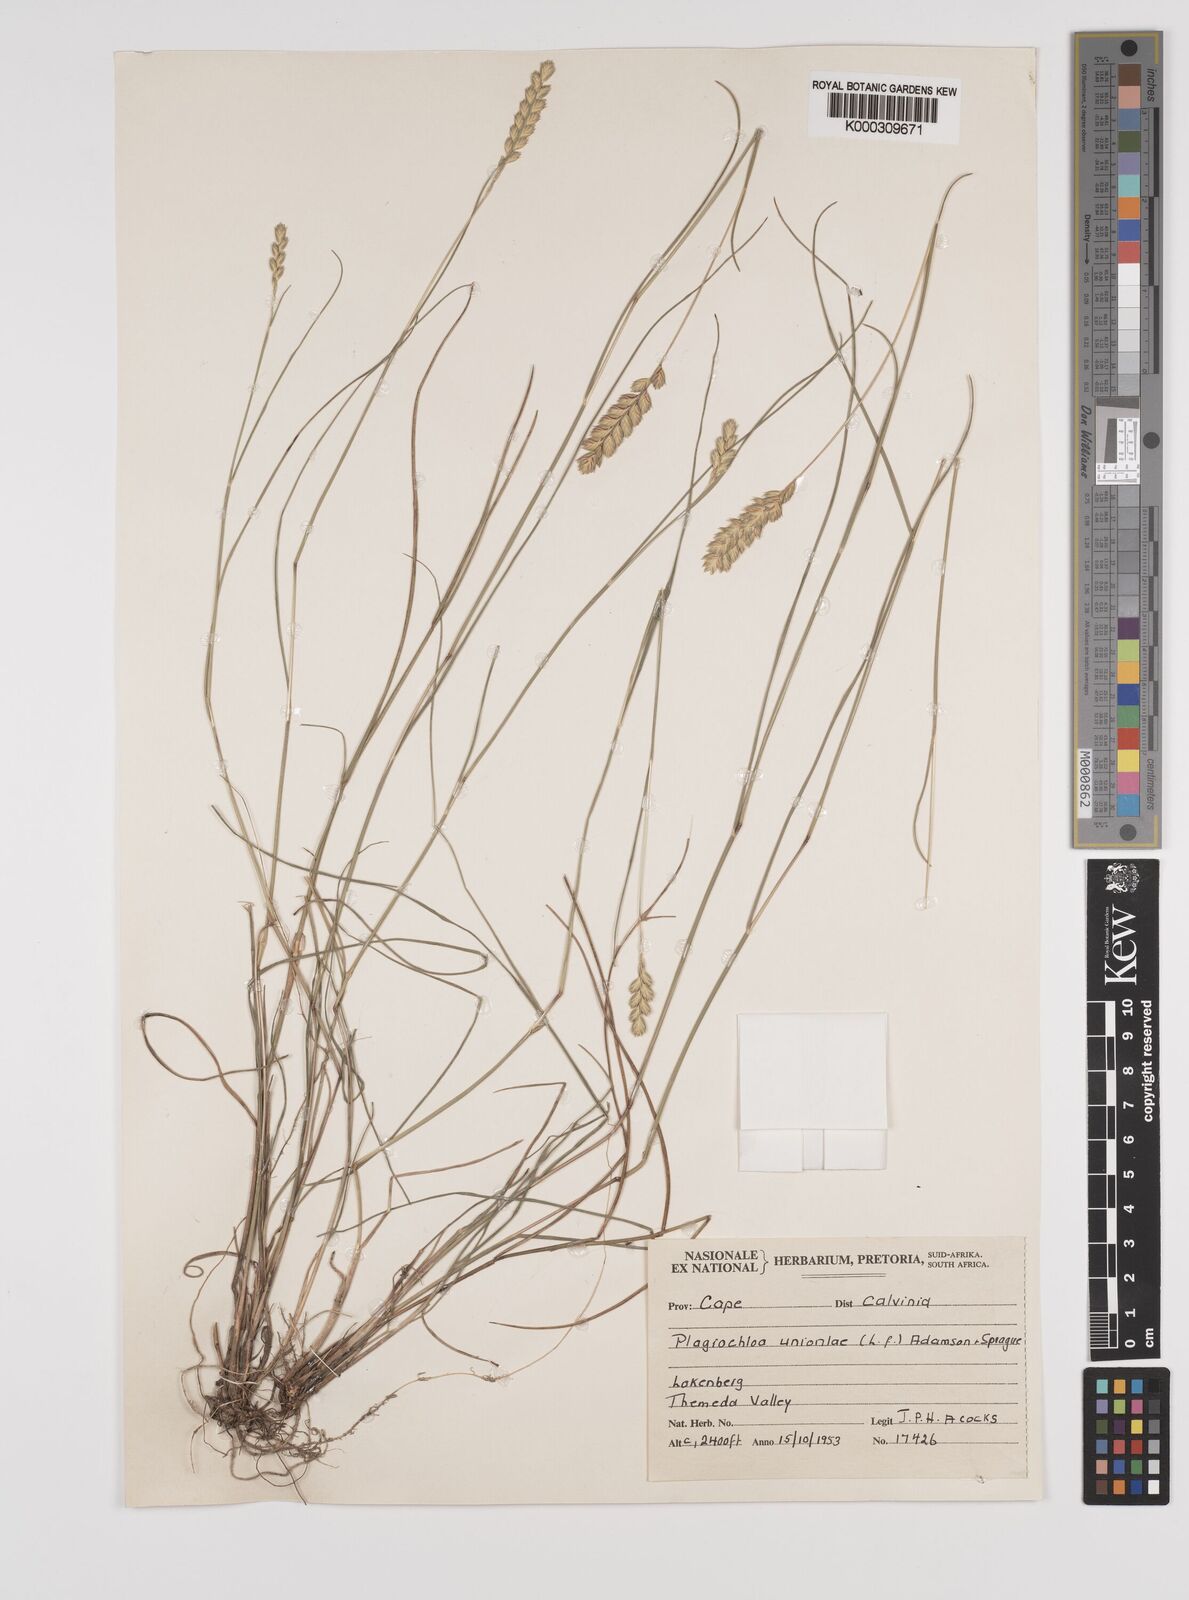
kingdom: Plantae
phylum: Tracheophyta
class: Liliopsida
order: Poales
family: Poaceae
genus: Tribolium
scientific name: Tribolium uniolae
